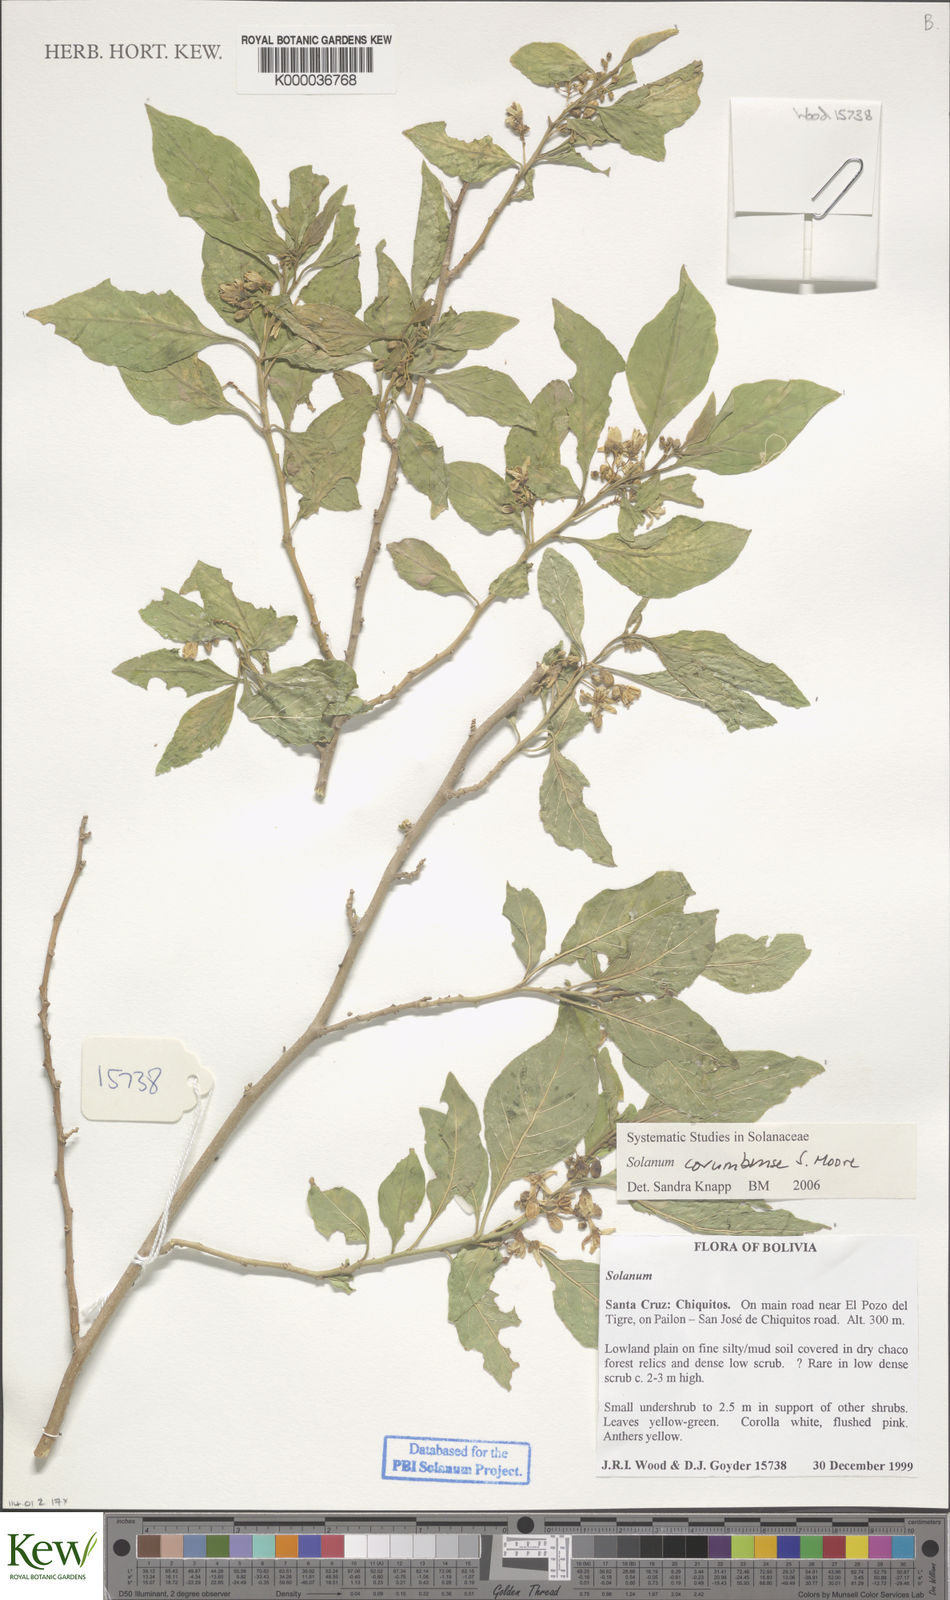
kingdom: Plantae
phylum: Tracheophyta
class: Magnoliopsida
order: Solanales
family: Solanaceae
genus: Solanum
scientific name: Solanum corumbense
